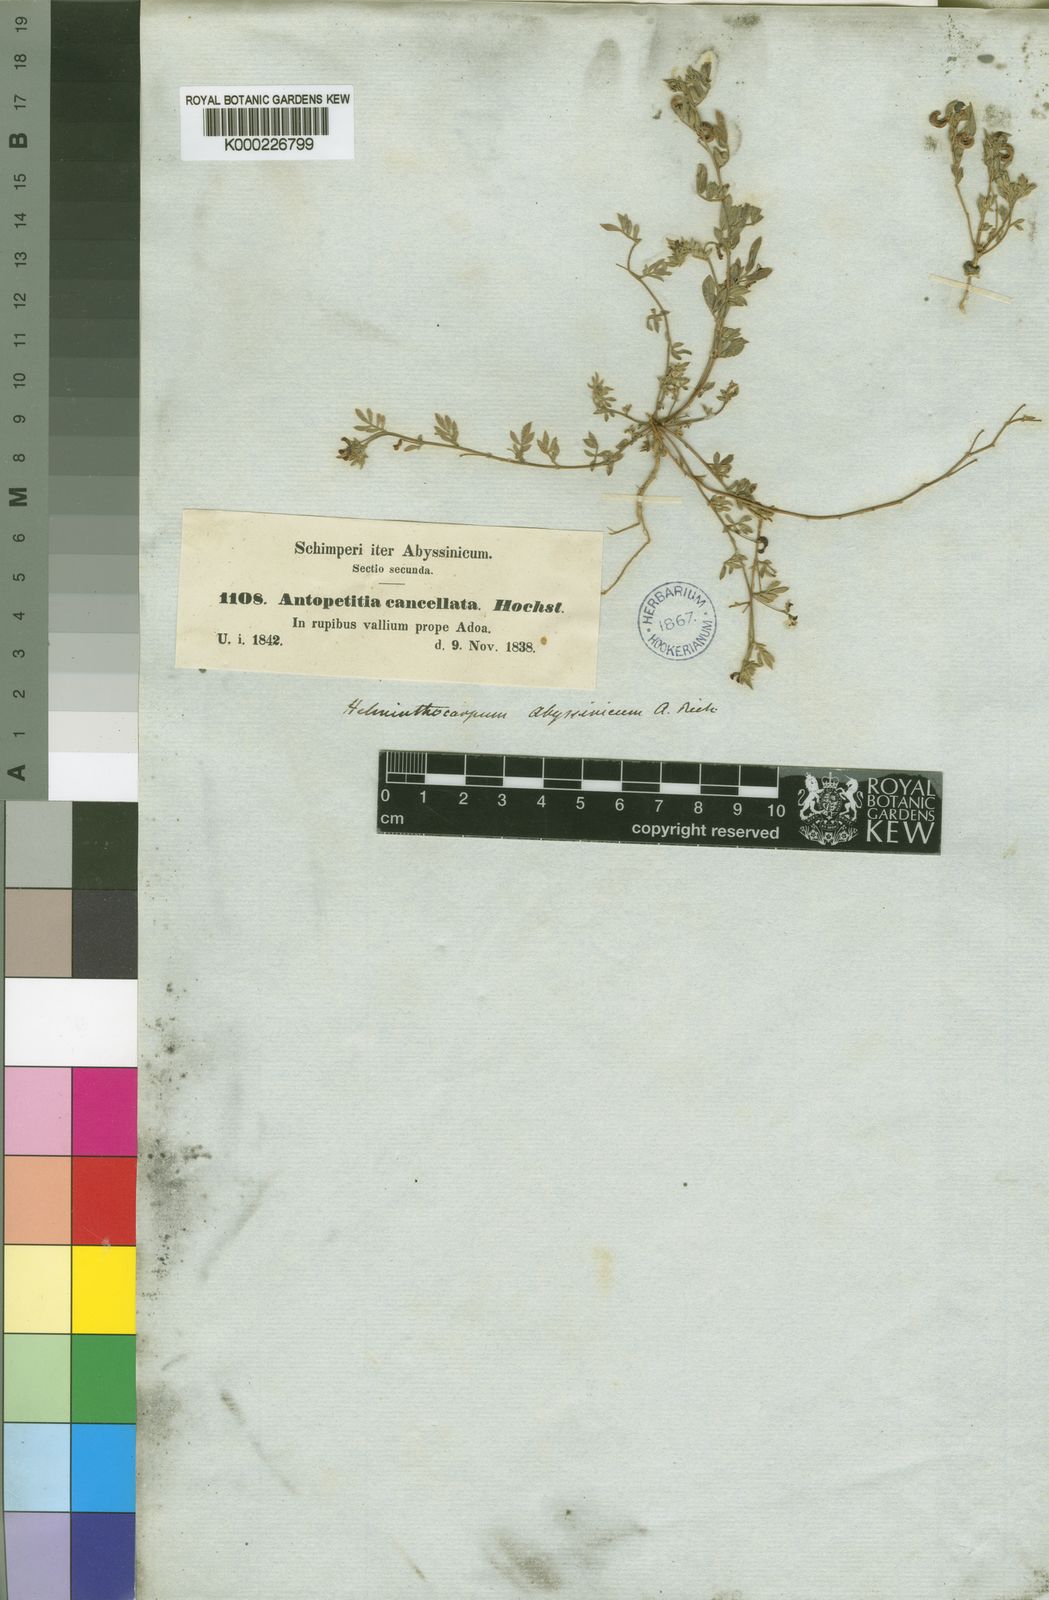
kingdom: Plantae
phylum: Tracheophyta
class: Magnoliopsida
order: Fabales
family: Fabaceae
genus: Dorycnopsis
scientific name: Dorycnopsis abyssinica
